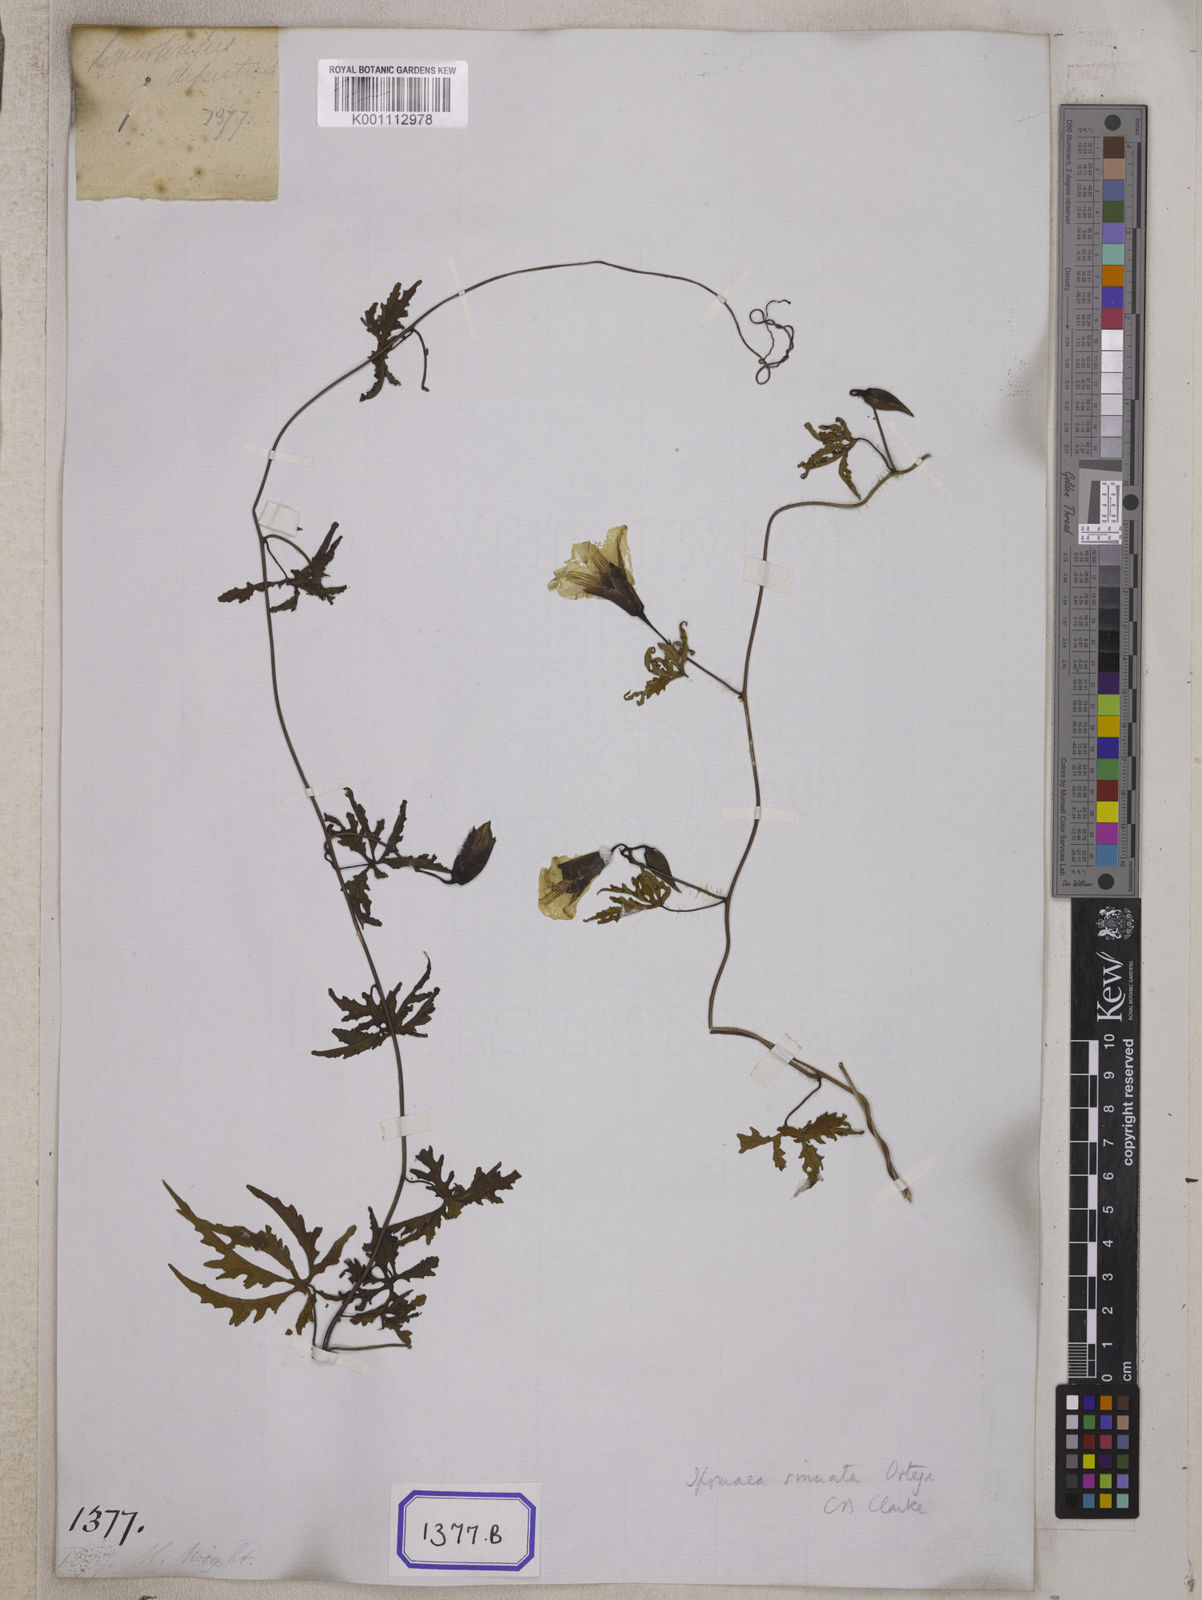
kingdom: Plantae
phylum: Tracheophyta
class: Magnoliopsida
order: Solanales
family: Convolvulaceae
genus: Convolvulus
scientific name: Convolvulus
